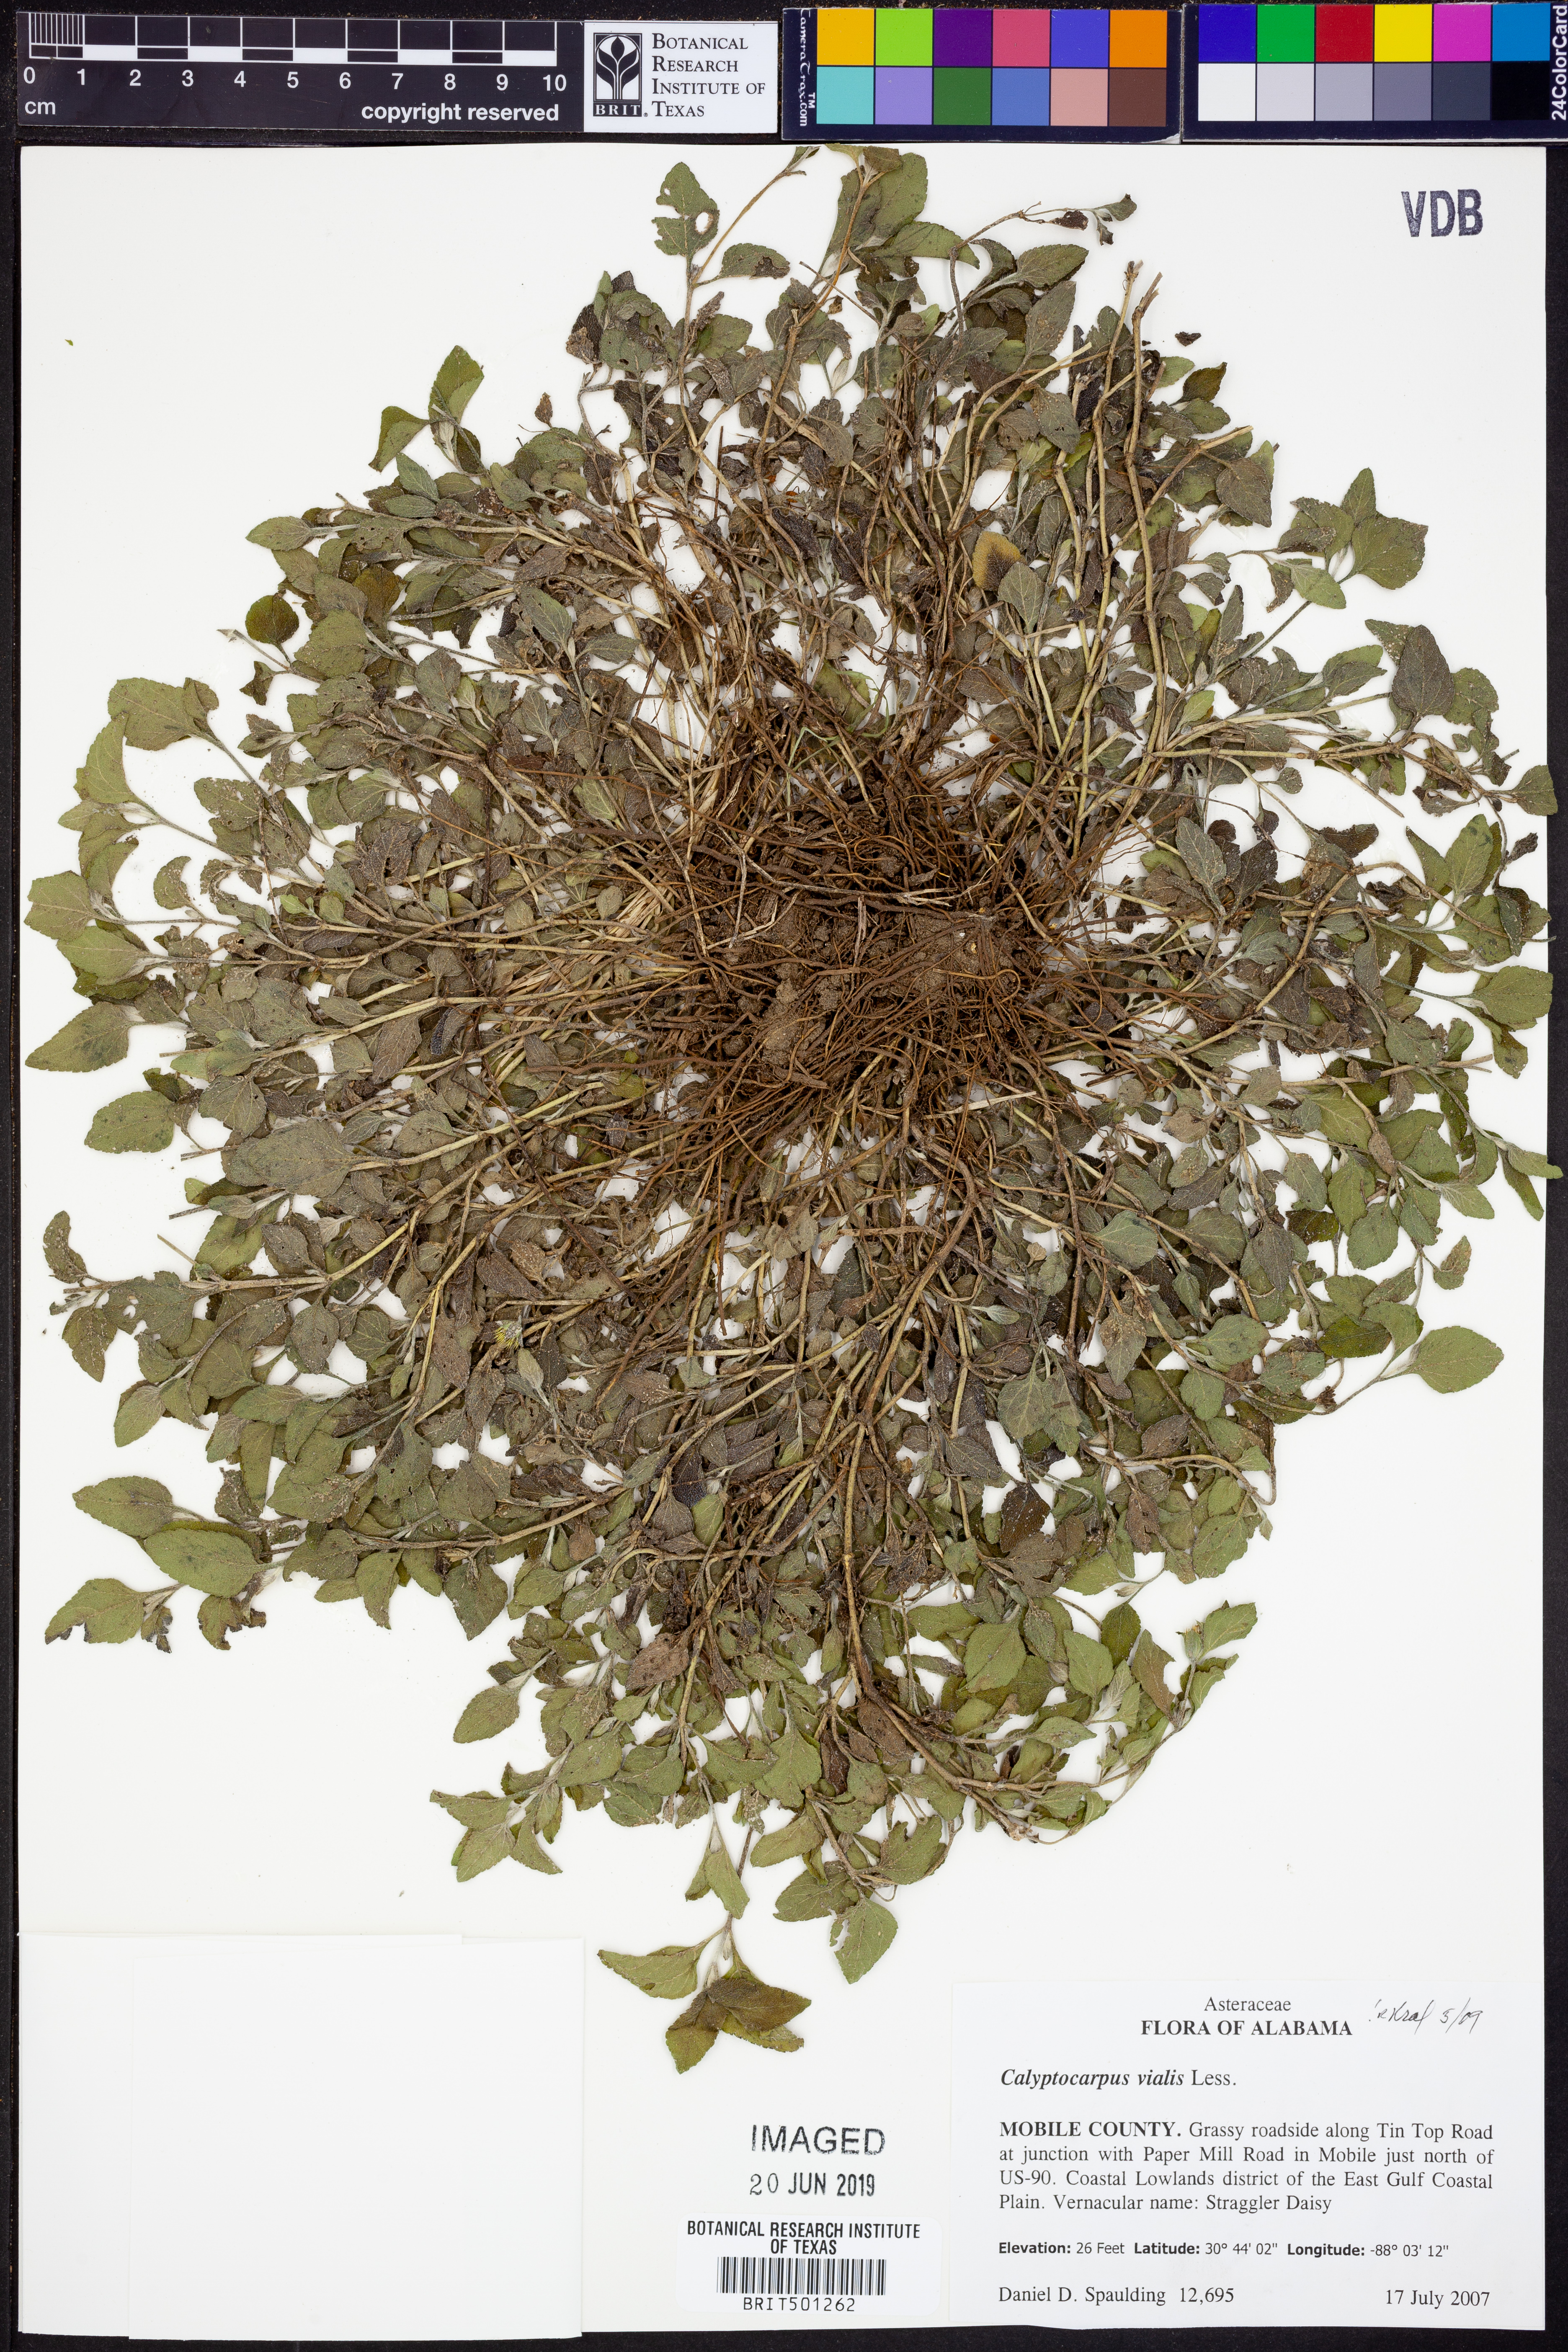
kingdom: Plantae
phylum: Tracheophyta
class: Magnoliopsida
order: Asterales
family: Asteraceae
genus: Calyptocarpus
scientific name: Calyptocarpus vialis
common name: Straggler daisy
